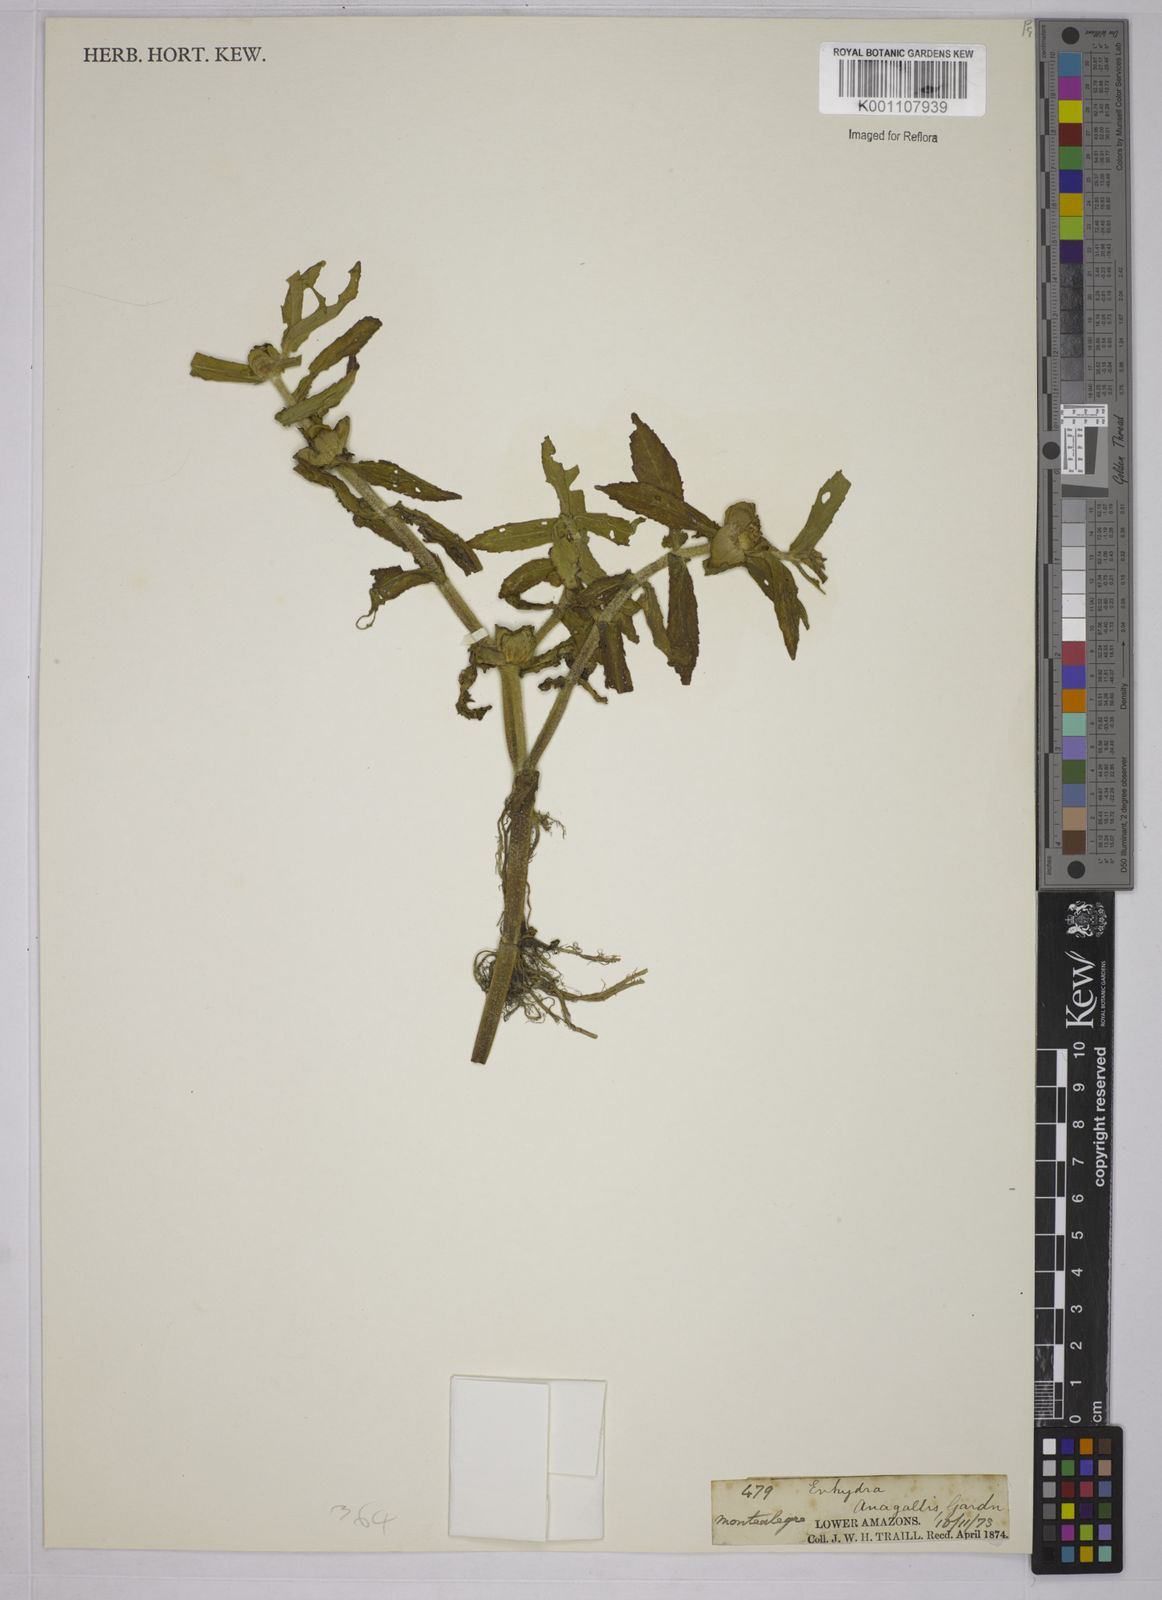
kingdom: Plantae
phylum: Tracheophyta
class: Magnoliopsida
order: Asterales
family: Asteraceae
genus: Enydra
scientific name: Enydra fluctuans
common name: Buffalo spinach
